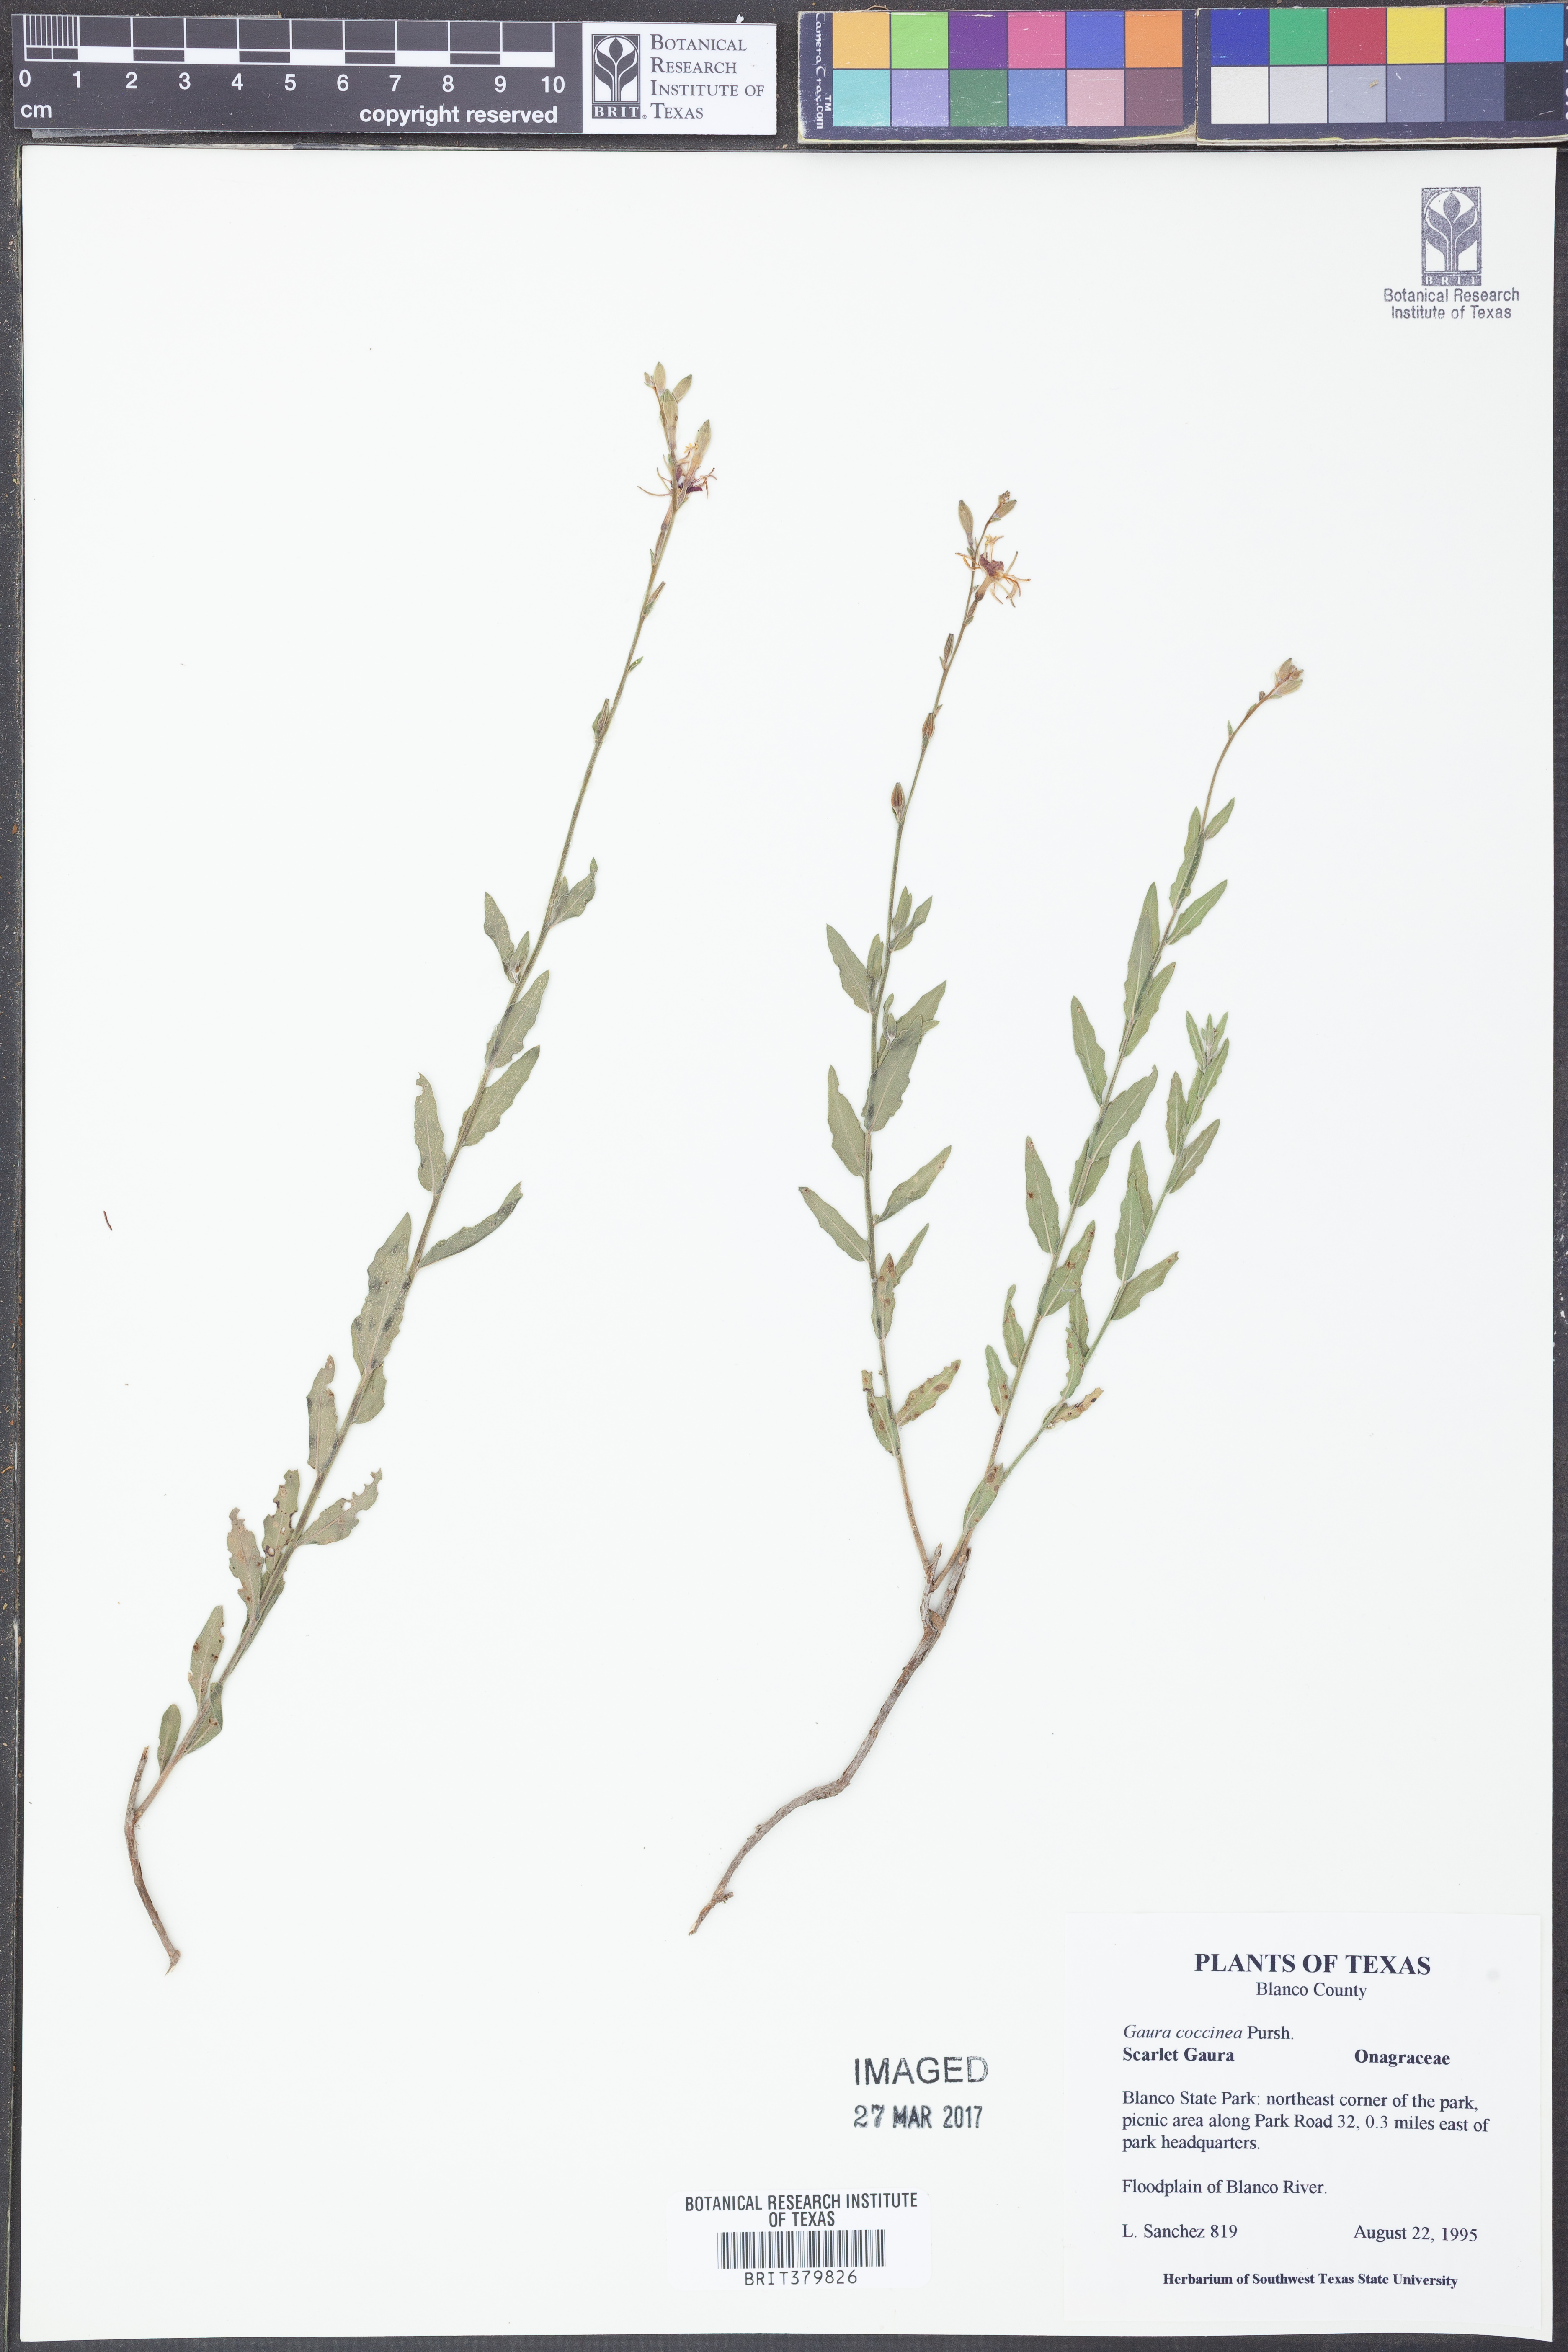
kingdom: Plantae
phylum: Tracheophyta
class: Magnoliopsida
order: Myrtales
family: Onagraceae
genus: Oenothera
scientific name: Oenothera suffrutescens
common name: Scarlet beeblossom
